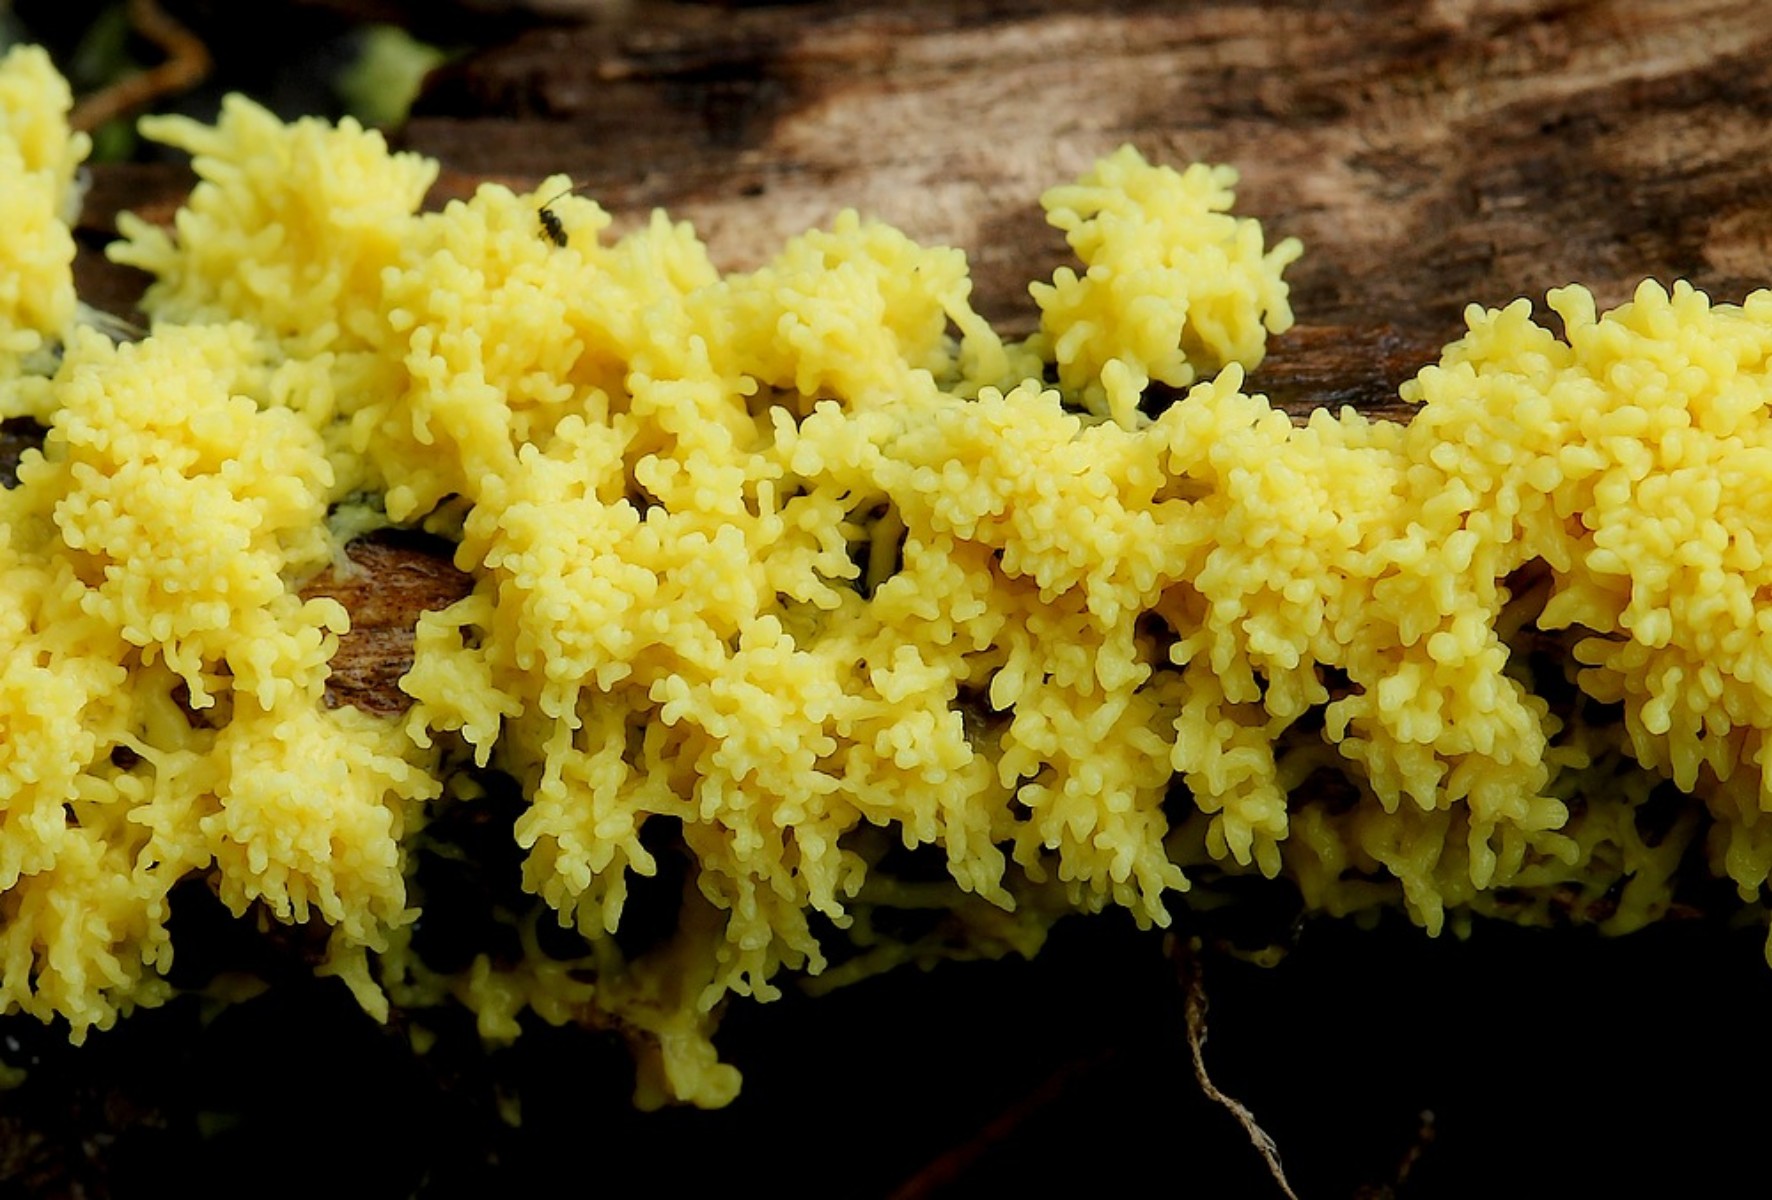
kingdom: Protozoa
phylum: Mycetozoa
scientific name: Mycetozoa
